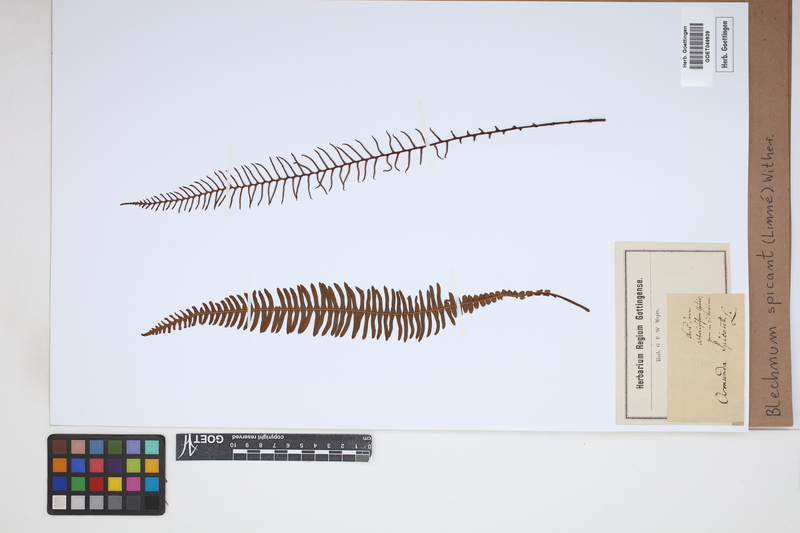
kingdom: Plantae
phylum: Tracheophyta
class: Polypodiopsida
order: Polypodiales
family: Blechnaceae
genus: Struthiopteris
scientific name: Struthiopteris spicant
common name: Deer fern
